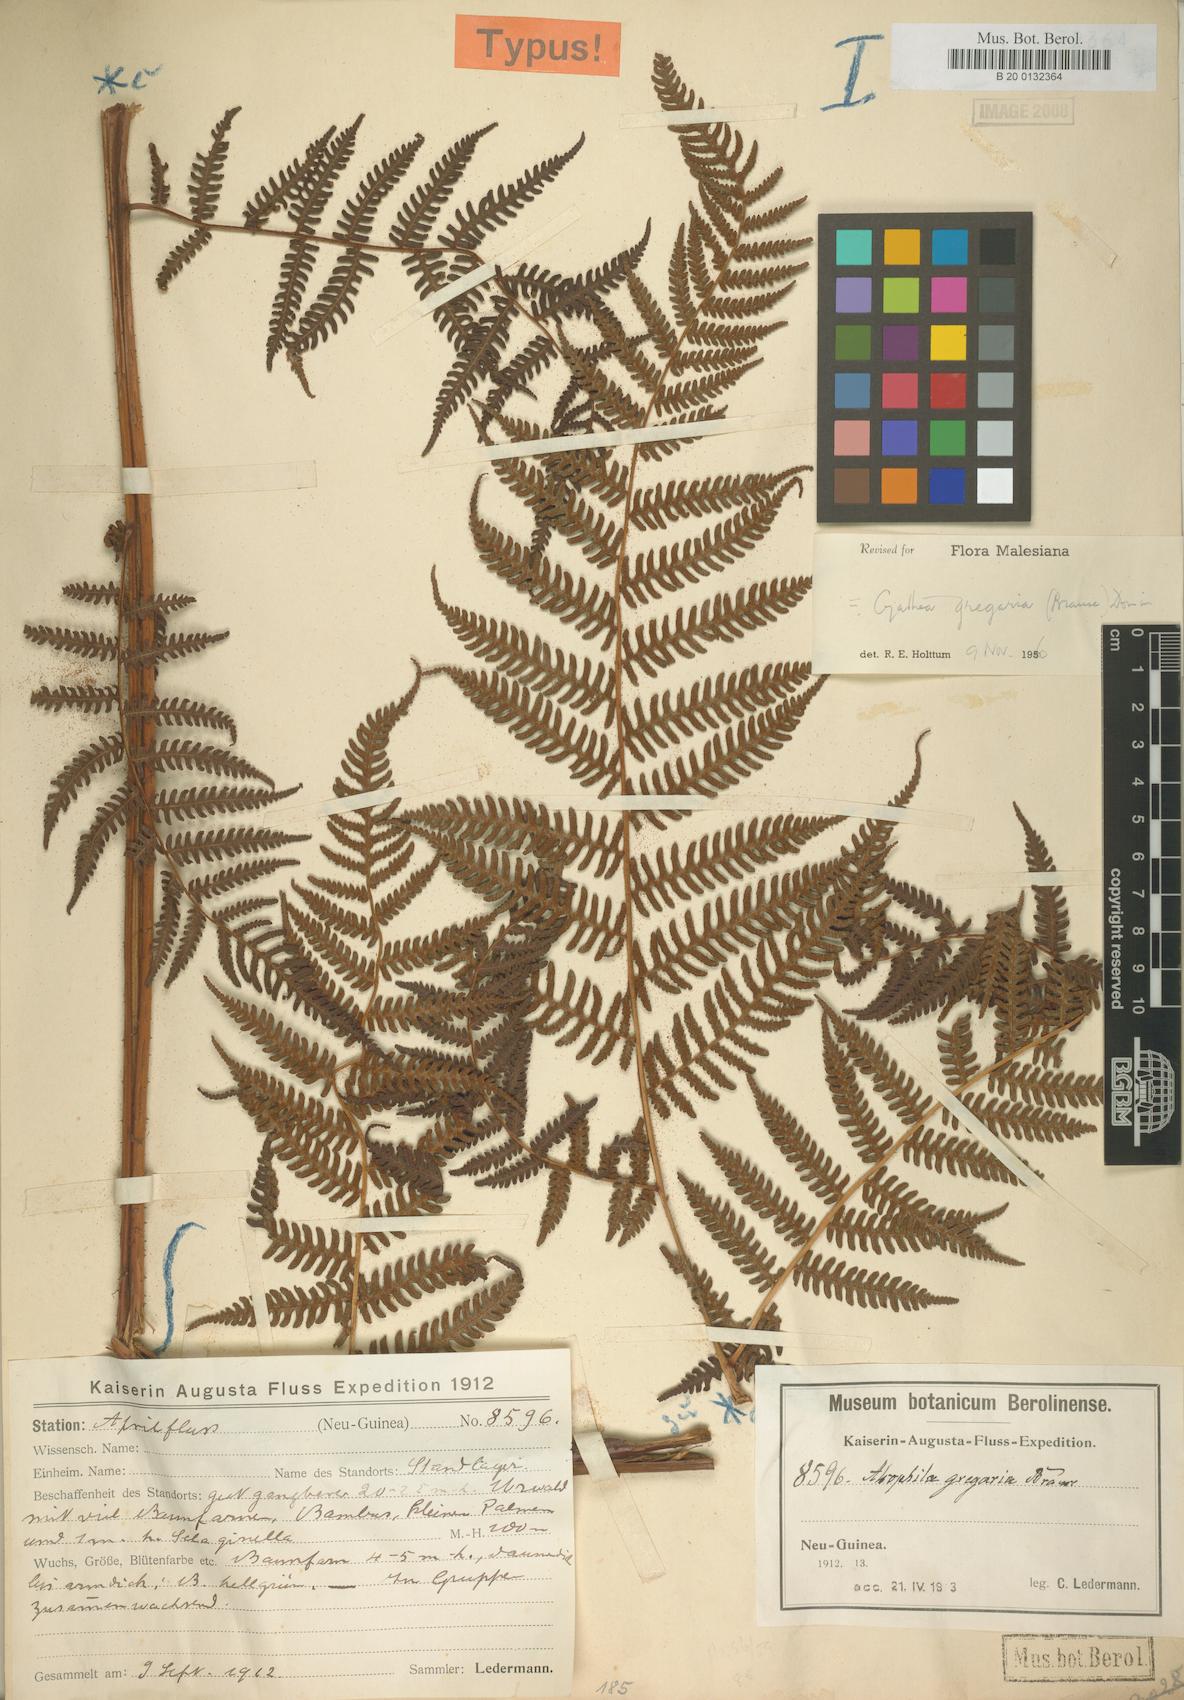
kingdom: Plantae
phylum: Tracheophyta
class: Polypodiopsida
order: Cyatheales
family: Cyatheaceae
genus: Alsophila
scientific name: Alsophila gregaria
